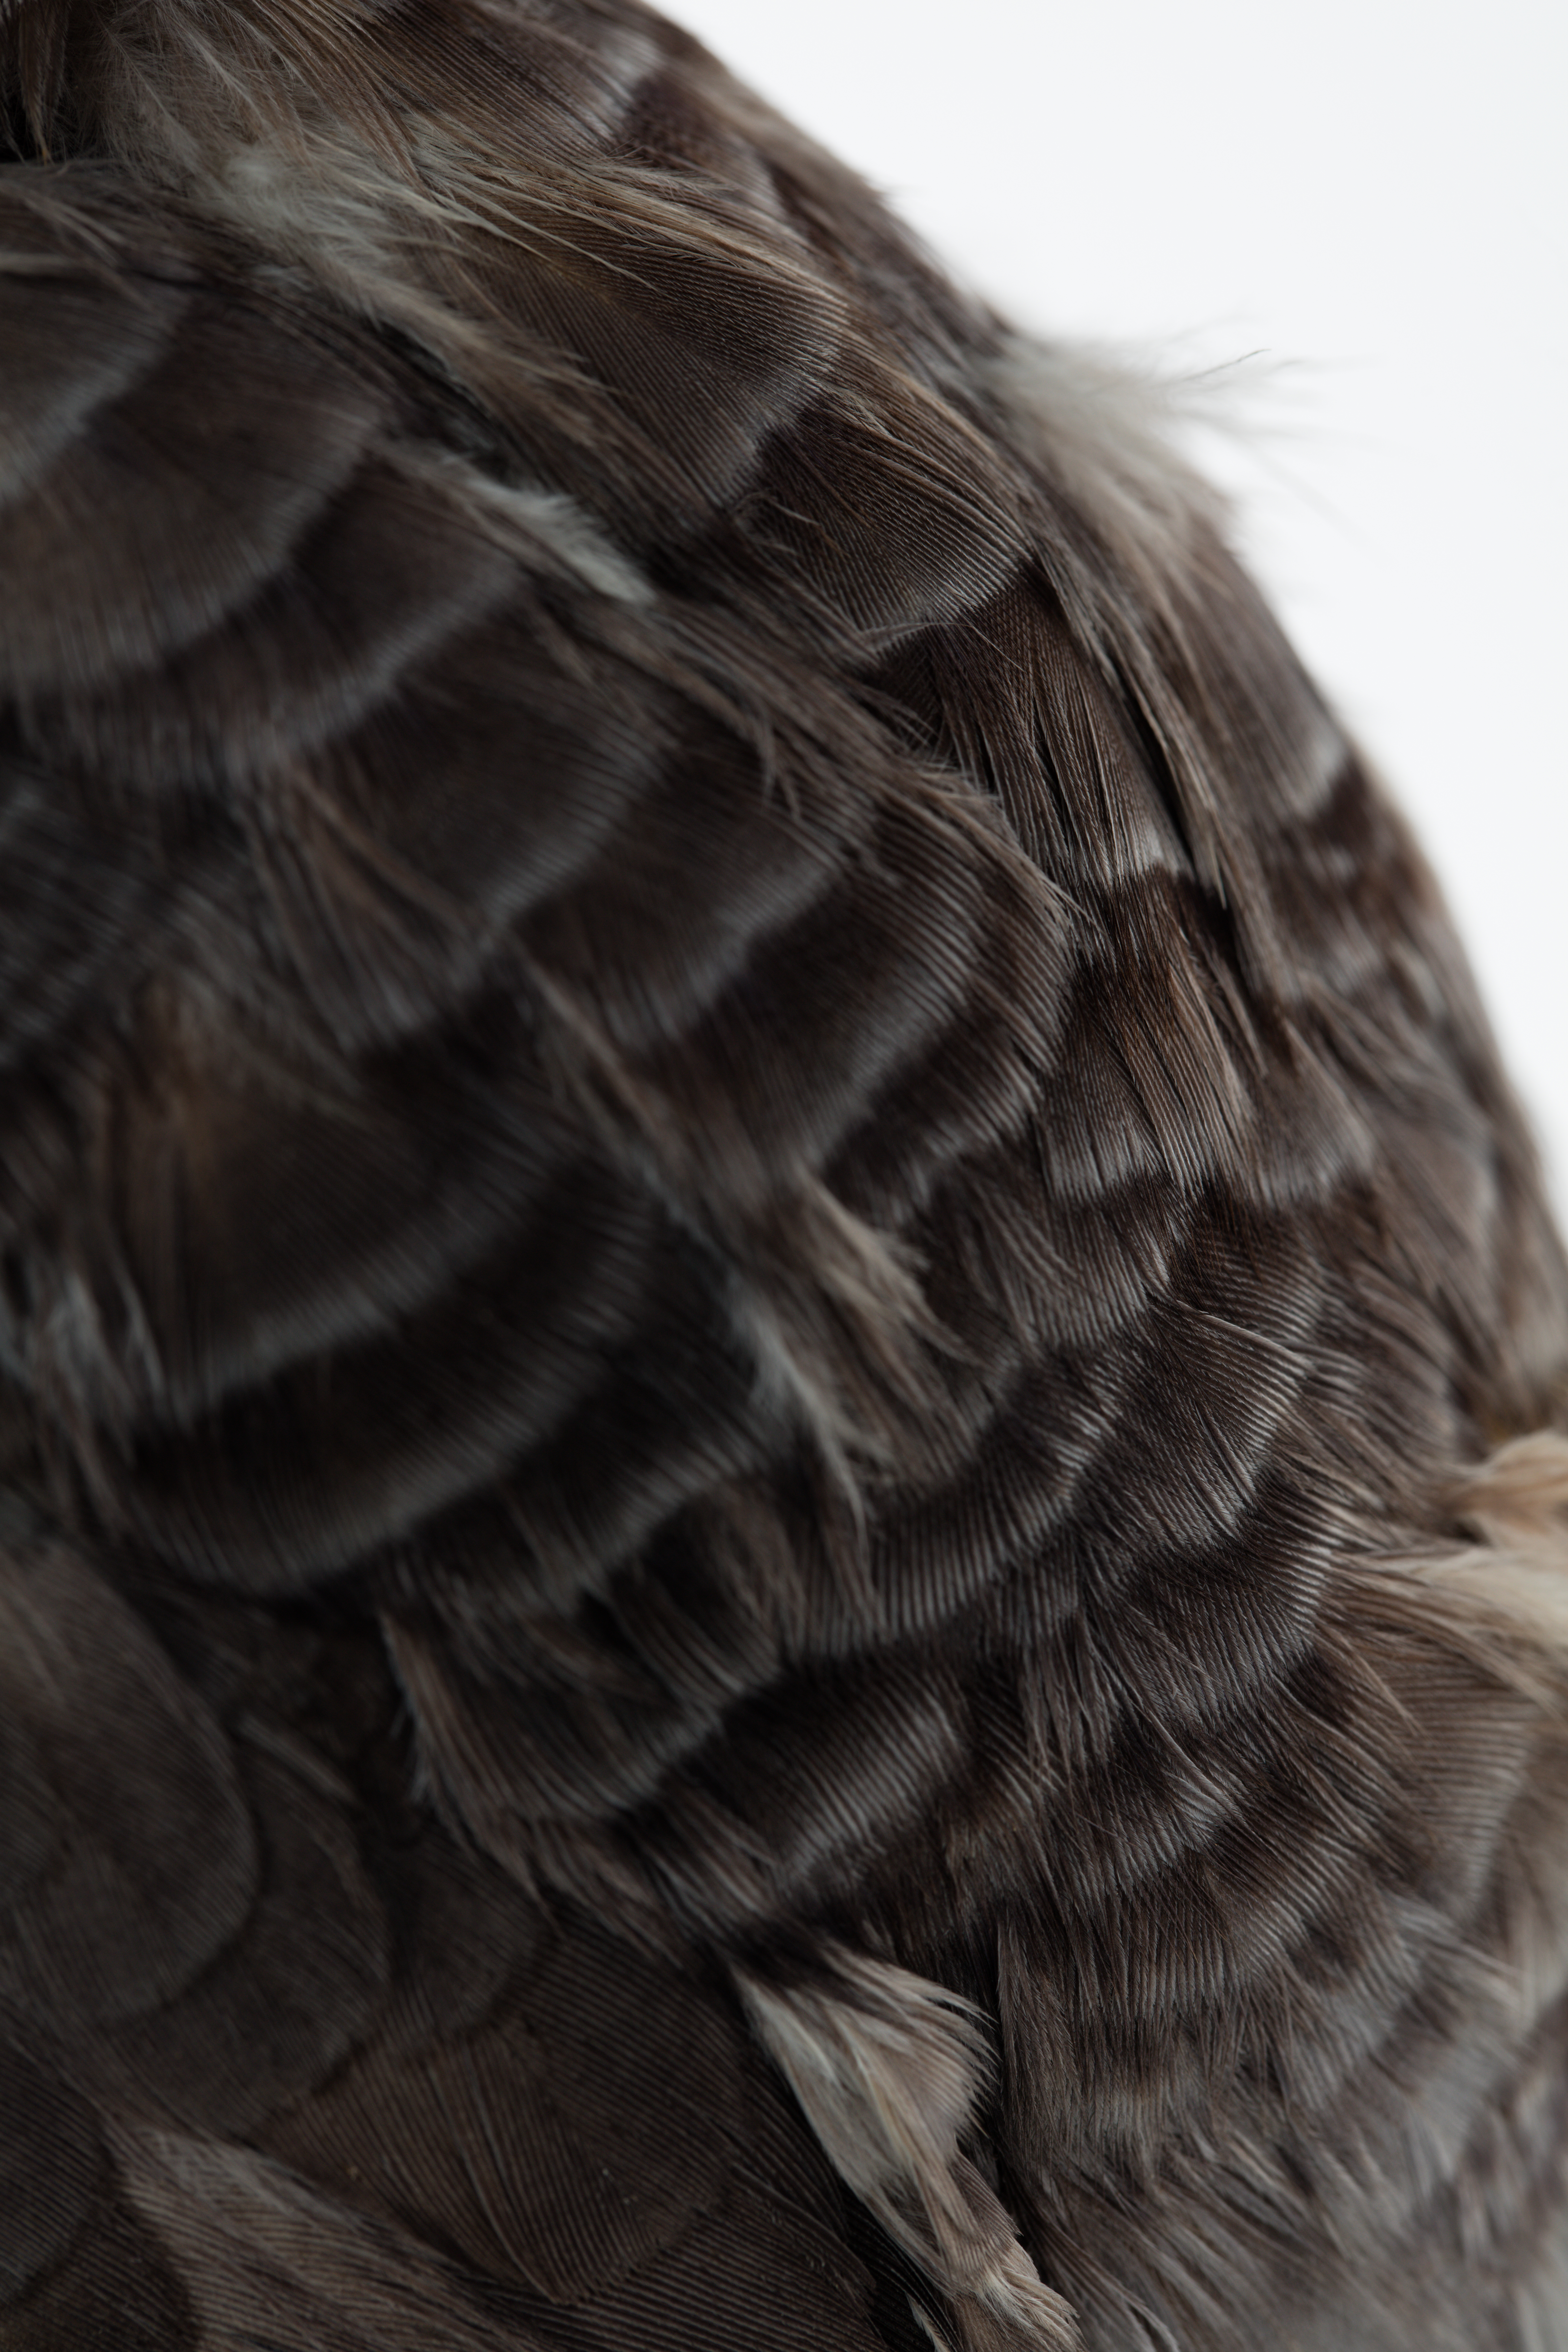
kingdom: Animalia
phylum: Chordata
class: Aves
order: Psittaciformes
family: Psittacidae
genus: Psittacus
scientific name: Psittacus erithacus
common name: Grey parrot
